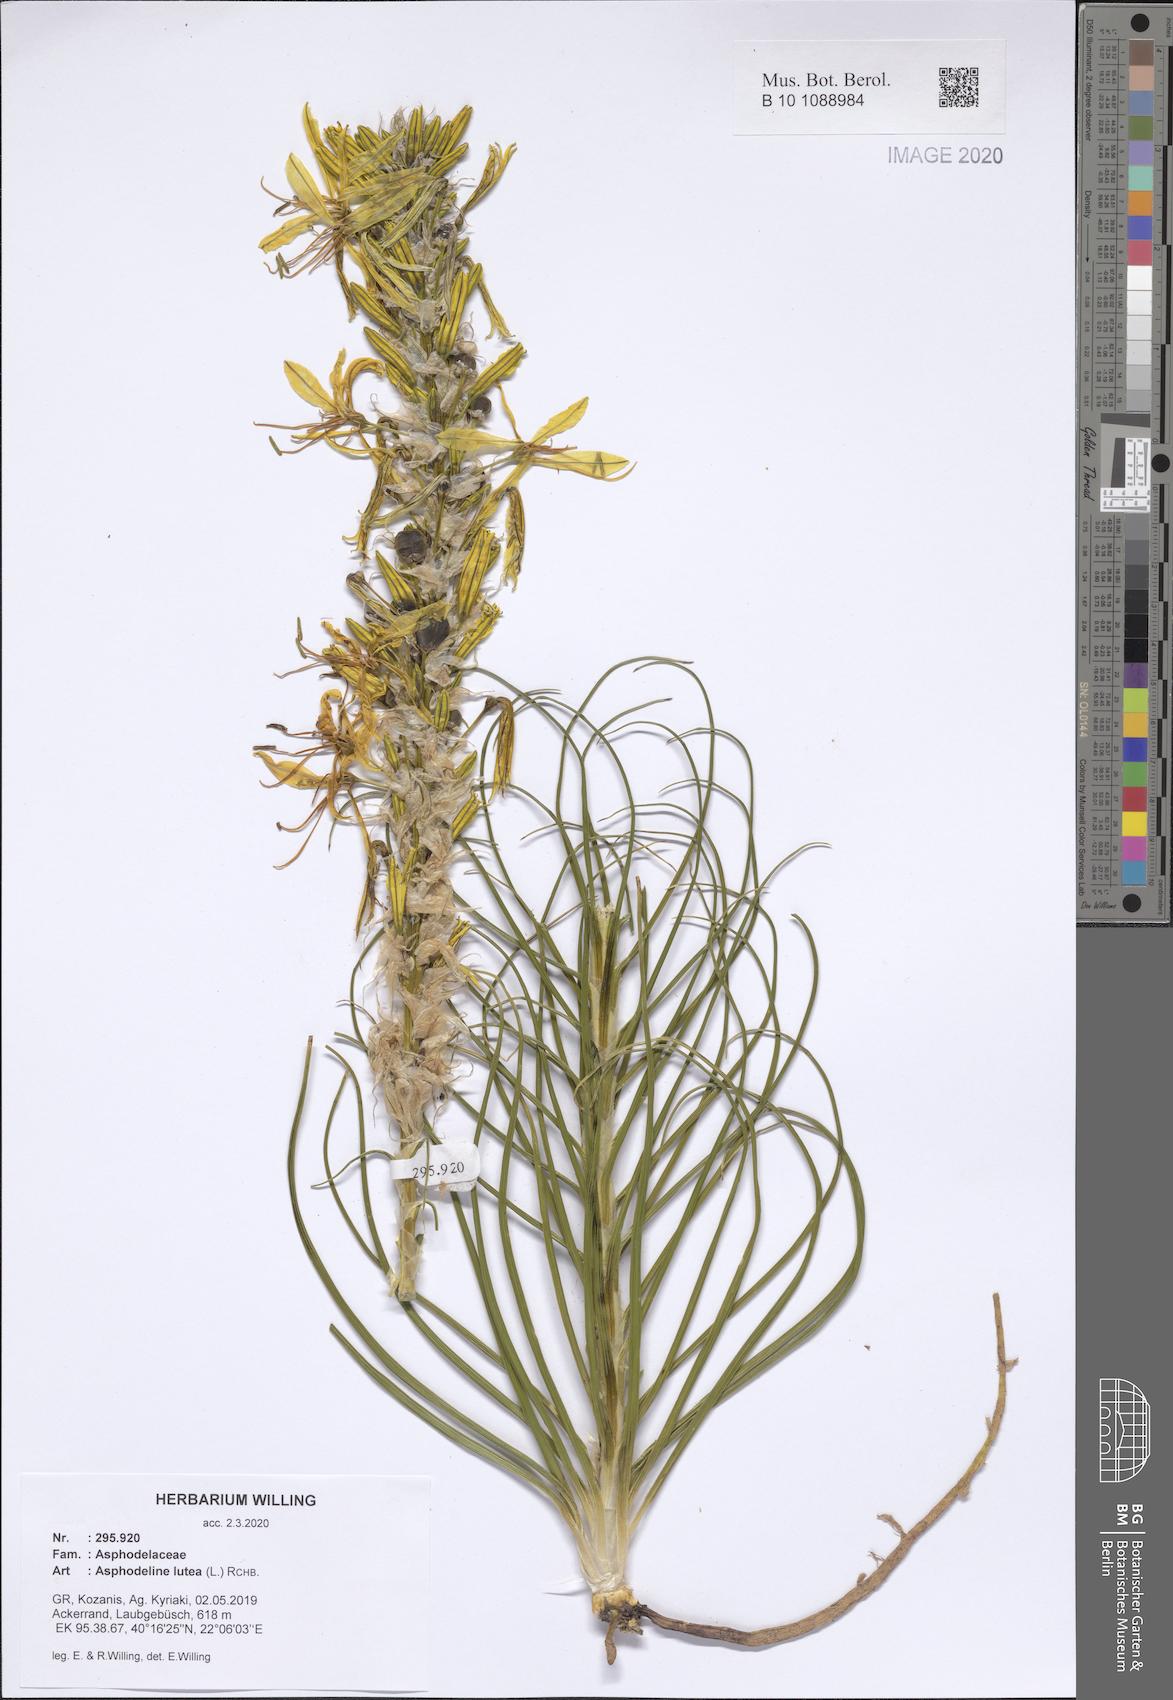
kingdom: Plantae
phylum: Tracheophyta
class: Liliopsida
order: Asparagales
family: Asphodelaceae
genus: Asphodeline
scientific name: Asphodeline lutea
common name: Yellow asphodel
